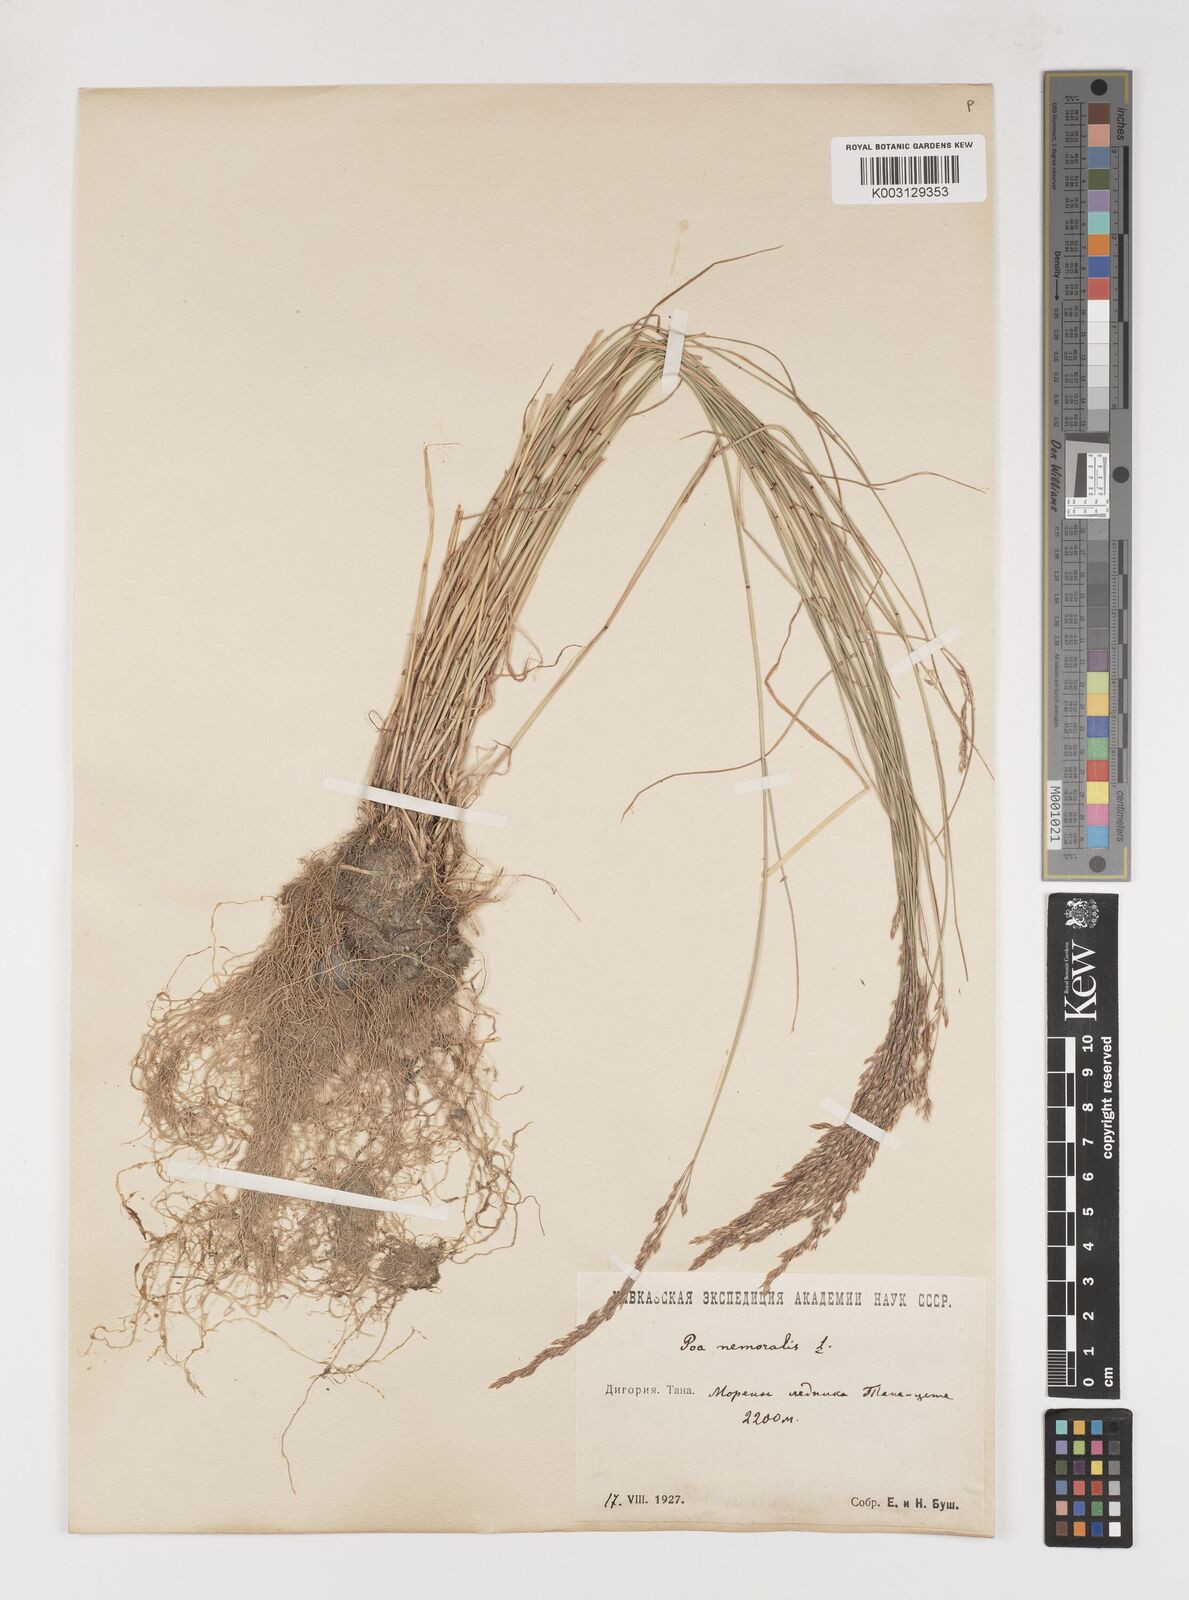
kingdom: Plantae
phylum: Tracheophyta
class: Liliopsida
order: Poales
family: Poaceae
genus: Poa
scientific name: Poa nemoralis
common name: Wood bluegrass
